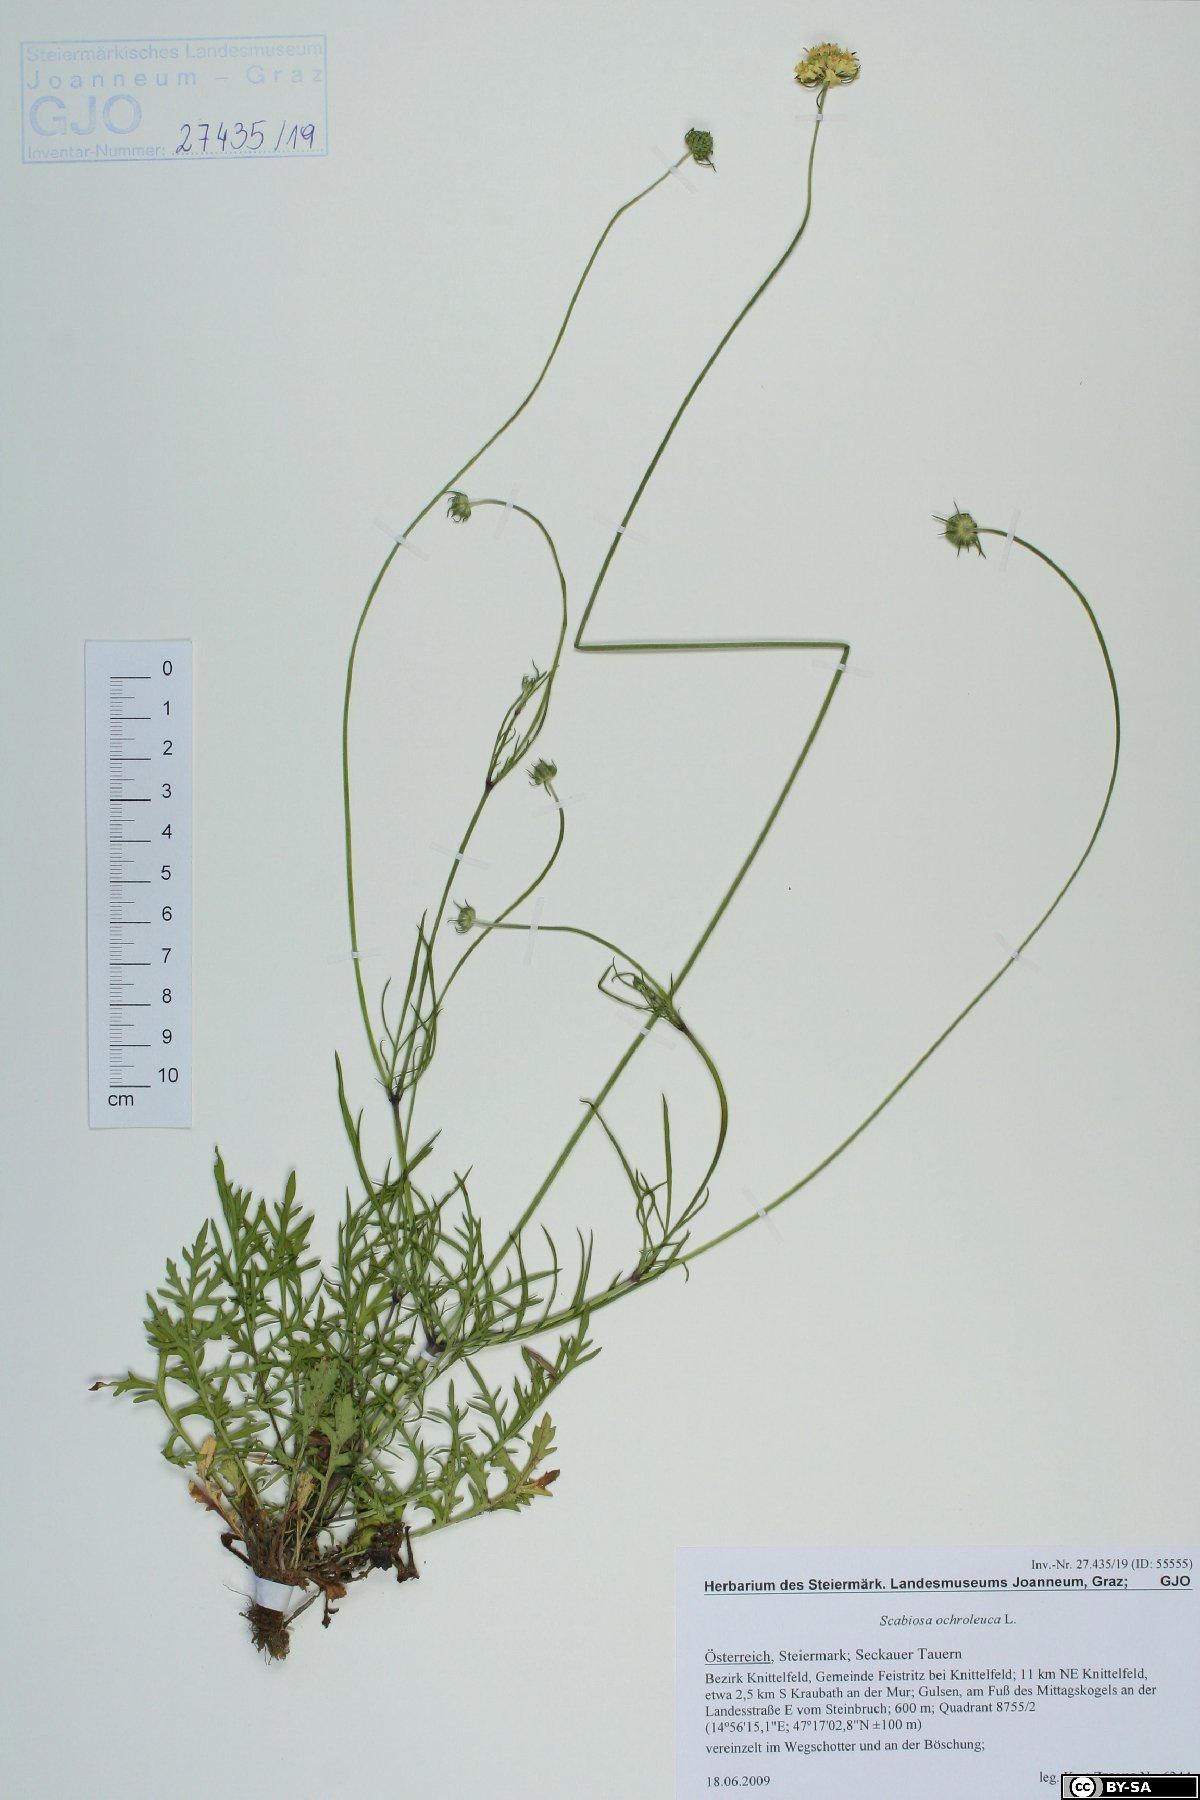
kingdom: Plantae
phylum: Tracheophyta
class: Magnoliopsida
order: Dipsacales
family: Caprifoliaceae
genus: Scabiosa
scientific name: Scabiosa ochroleuca
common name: Cream pincushions
